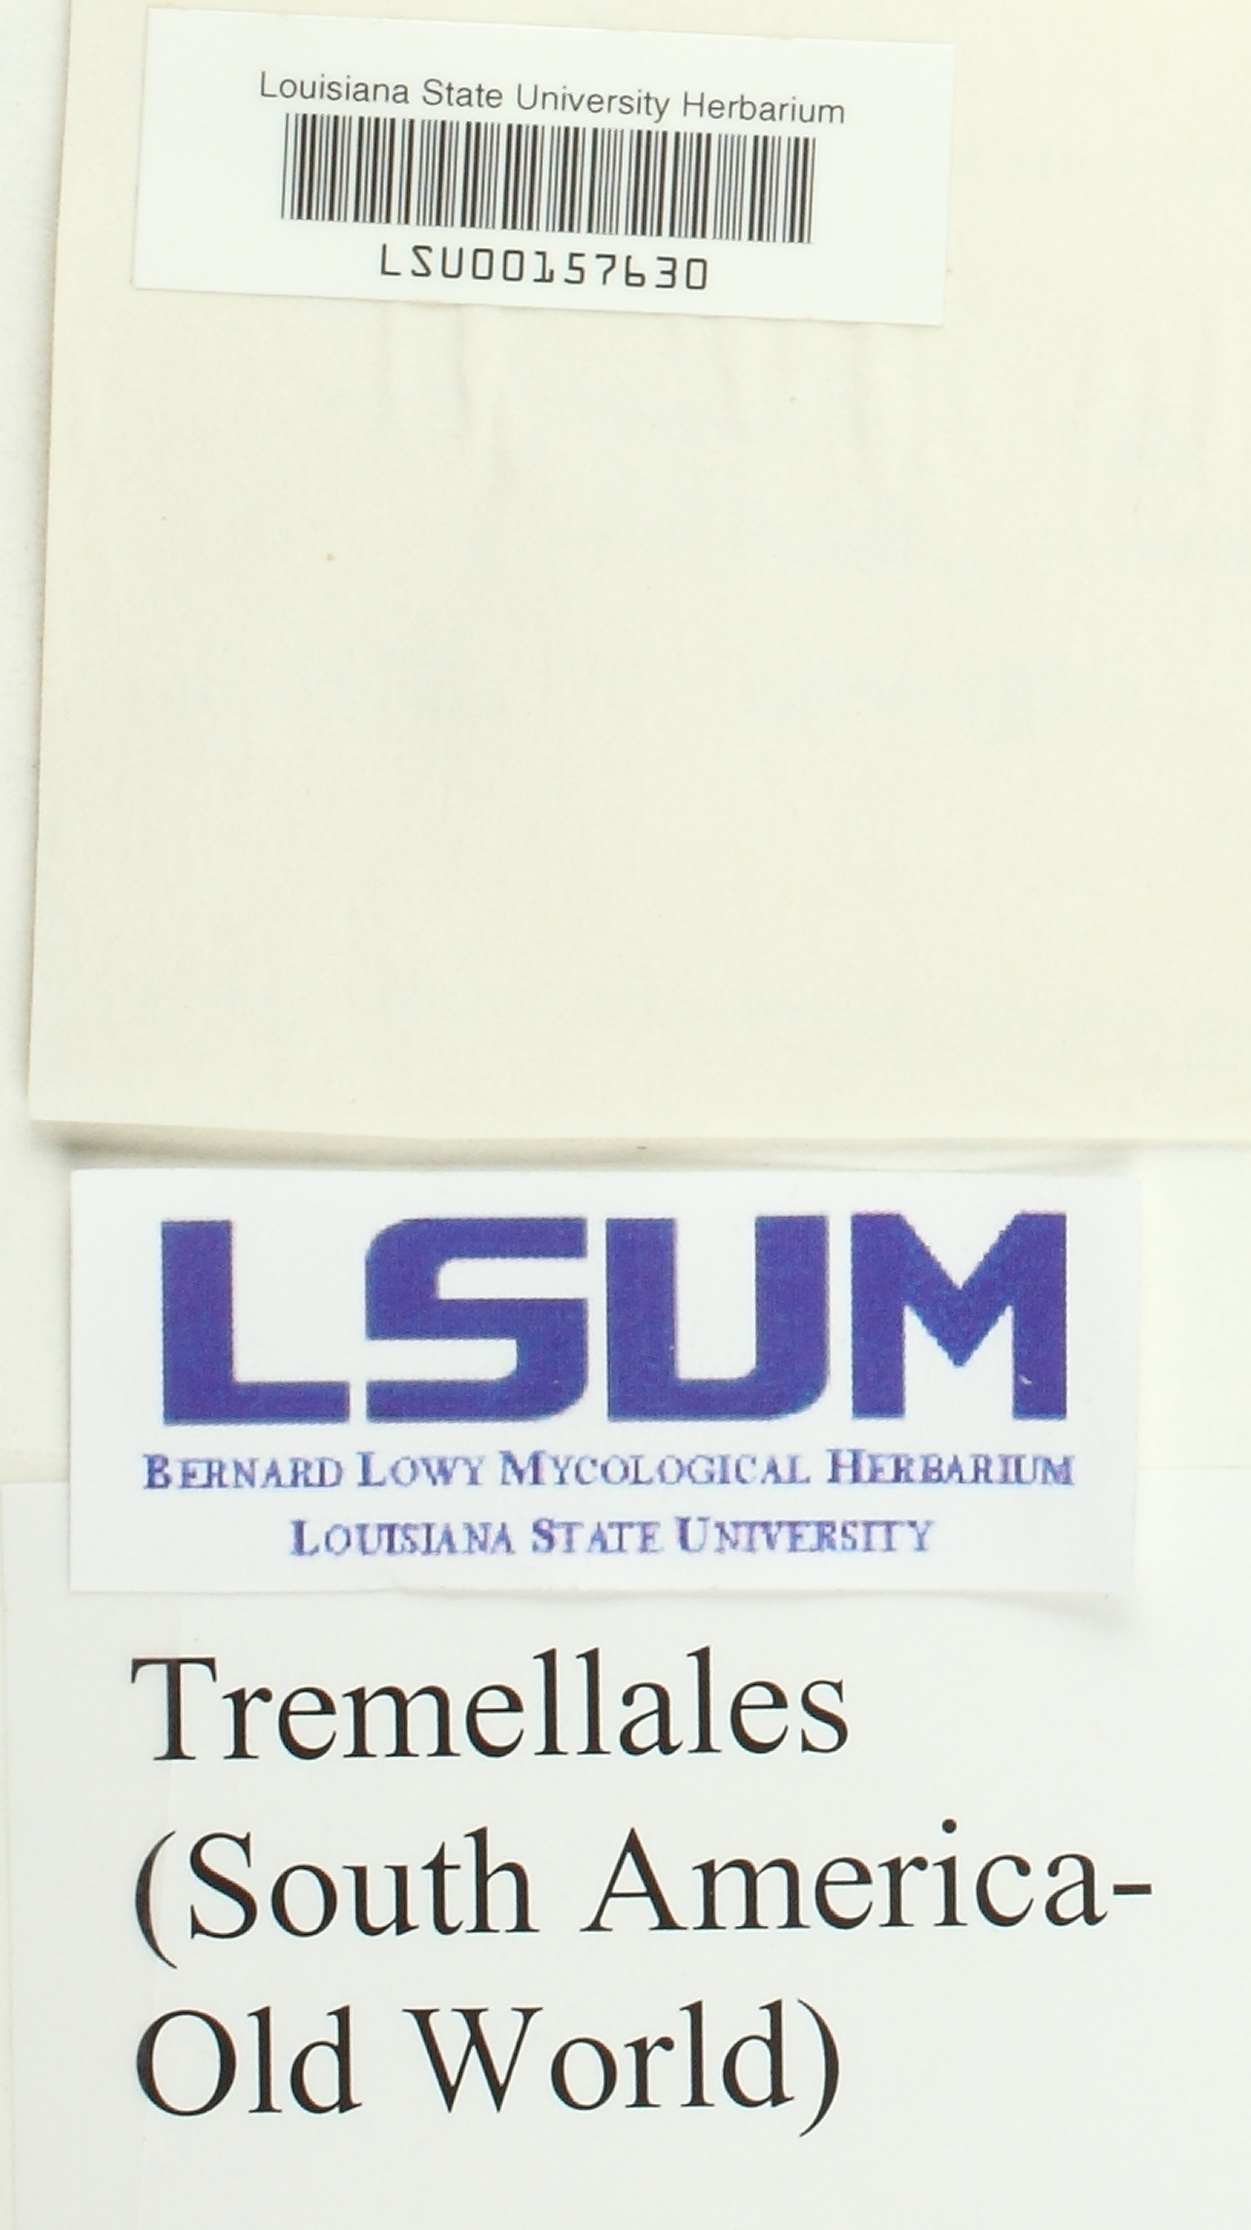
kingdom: Fungi
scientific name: Fungi
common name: Fungi
